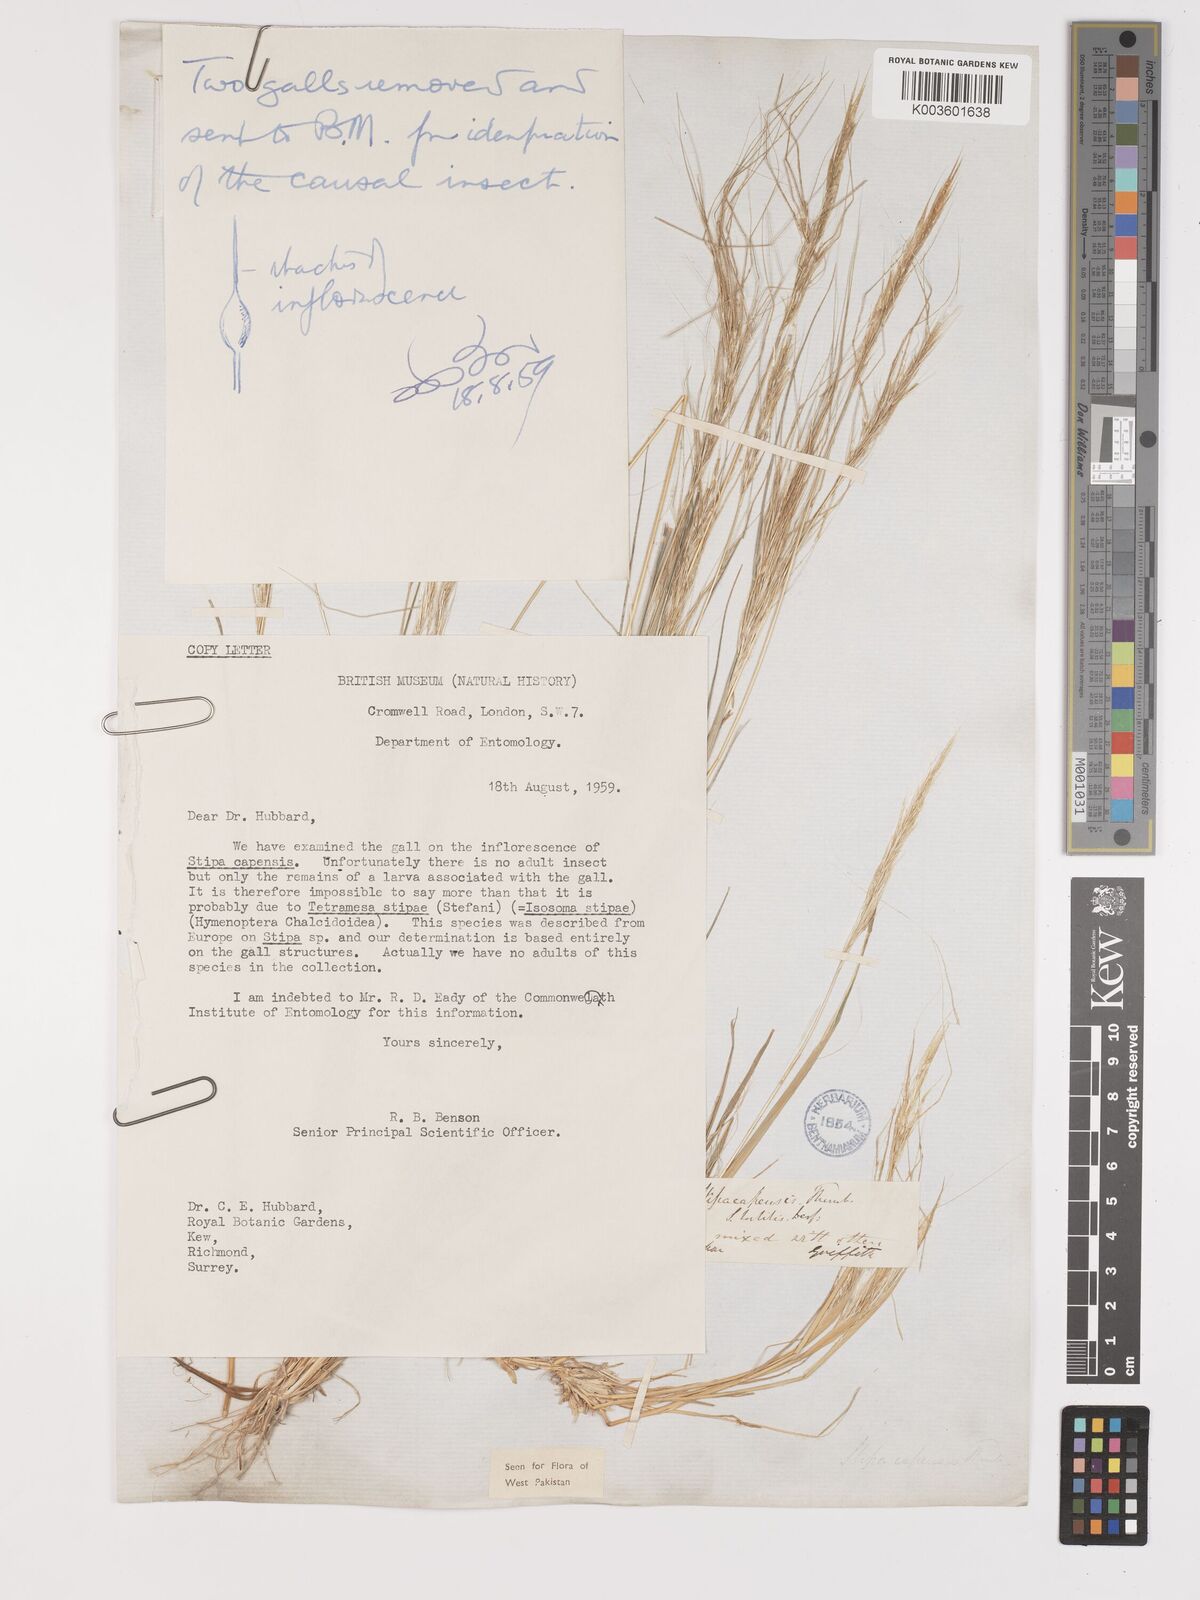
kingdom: Plantae
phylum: Tracheophyta
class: Liliopsida
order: Poales
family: Poaceae
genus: Stipellula
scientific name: Stipellula capensis
